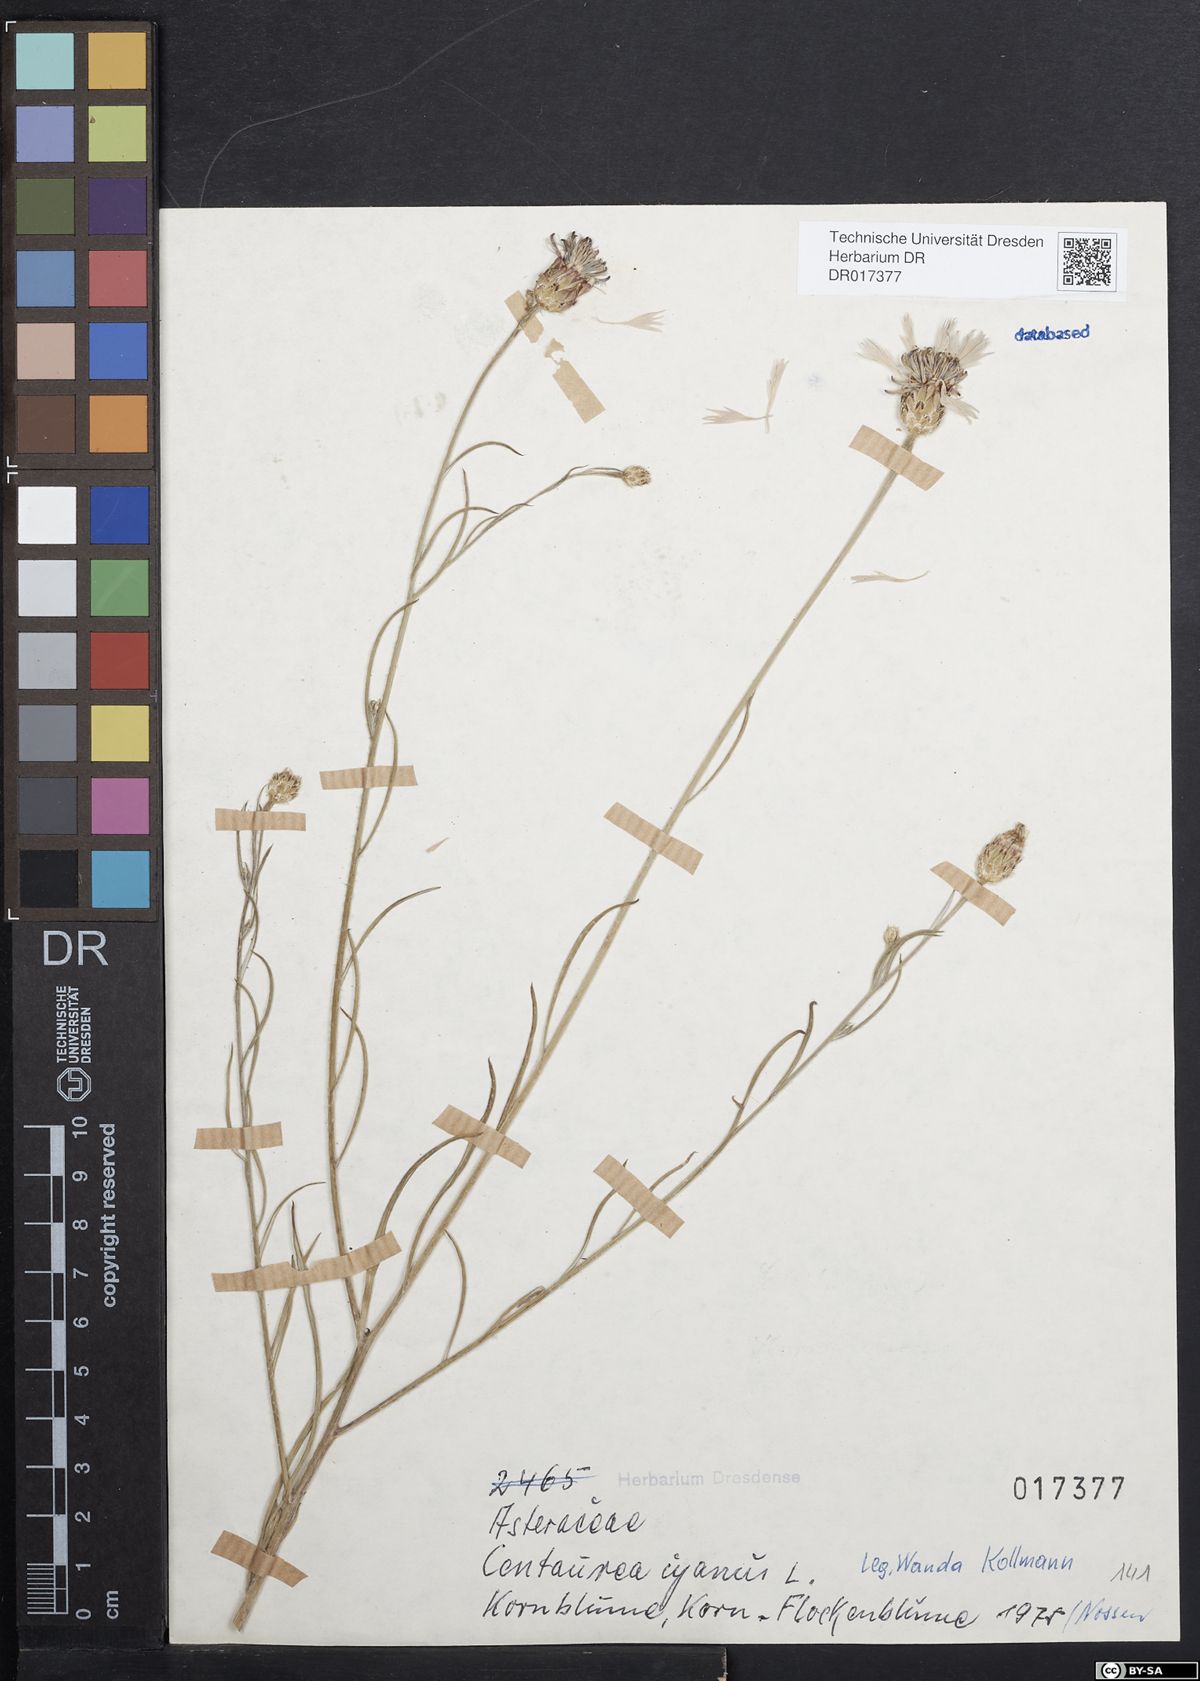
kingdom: Plantae
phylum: Tracheophyta
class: Magnoliopsida
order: Asterales
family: Asteraceae
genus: Centaurea
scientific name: Centaurea cyanus
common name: Cornflower
